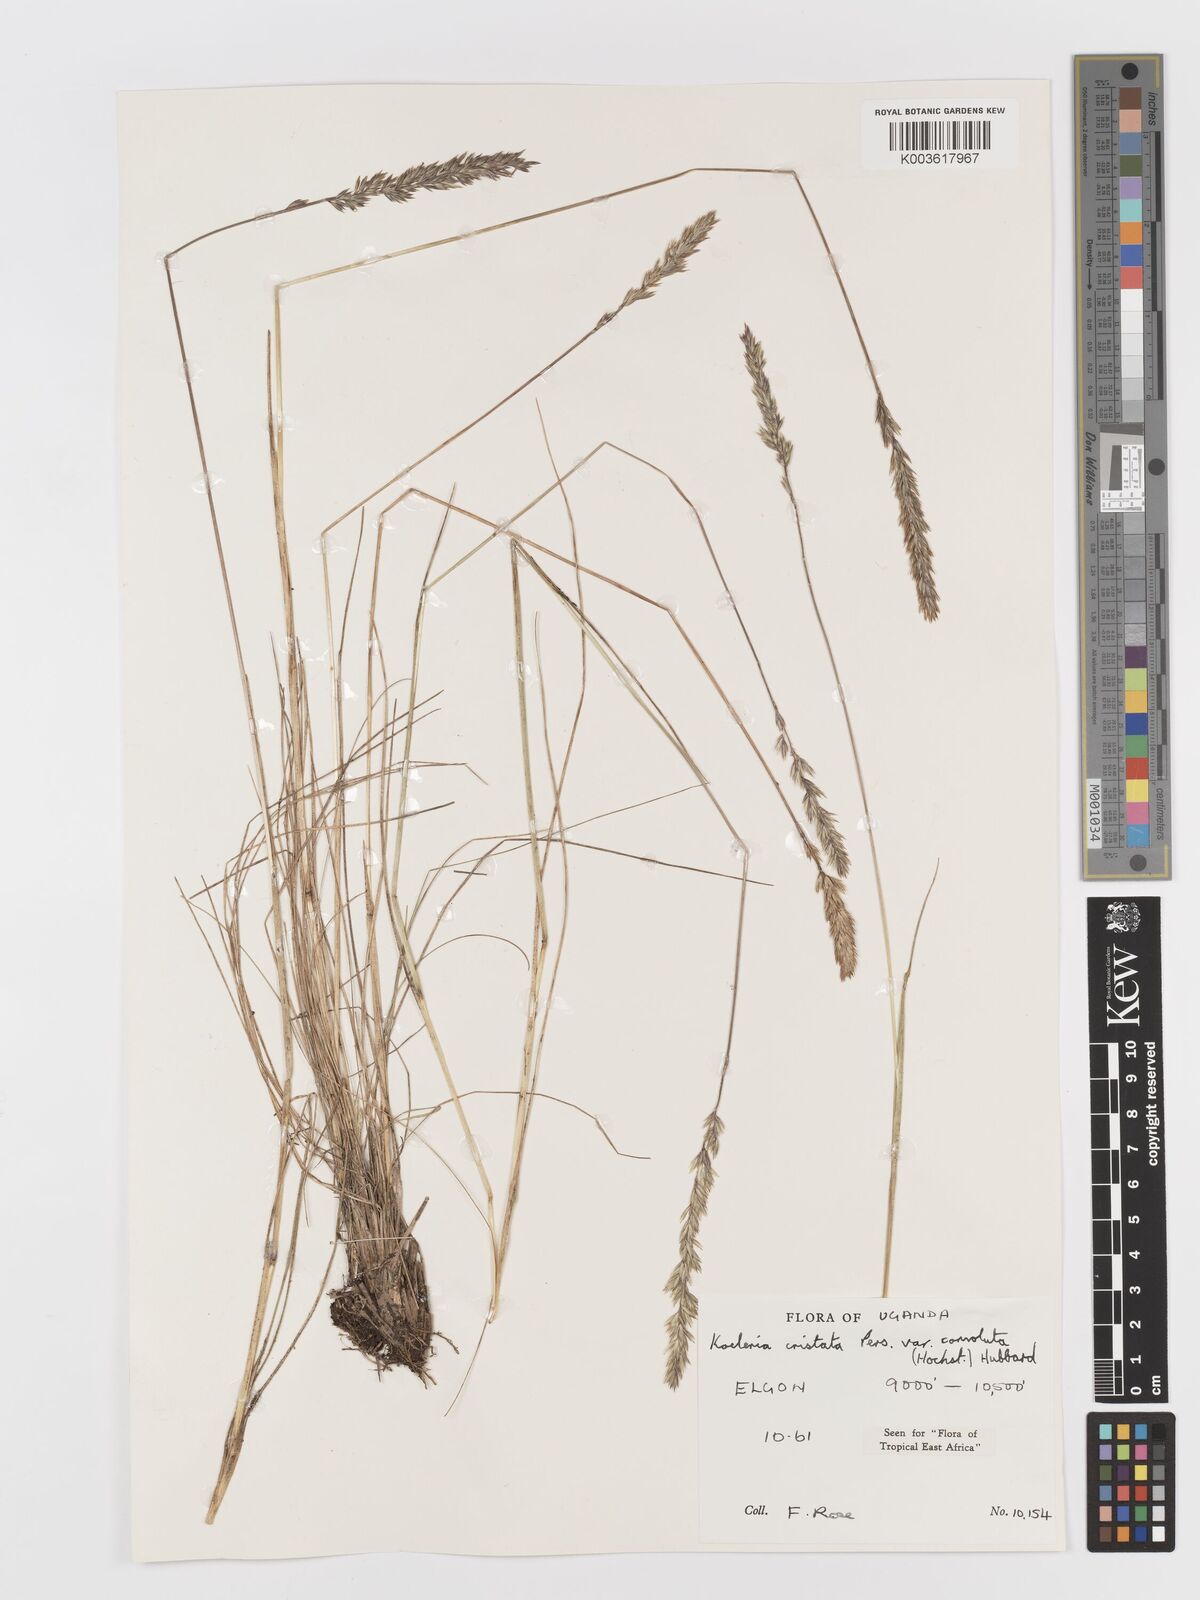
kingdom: Plantae
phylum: Tracheophyta
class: Liliopsida
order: Poales
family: Poaceae
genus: Koeleria
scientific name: Koeleria capensis
